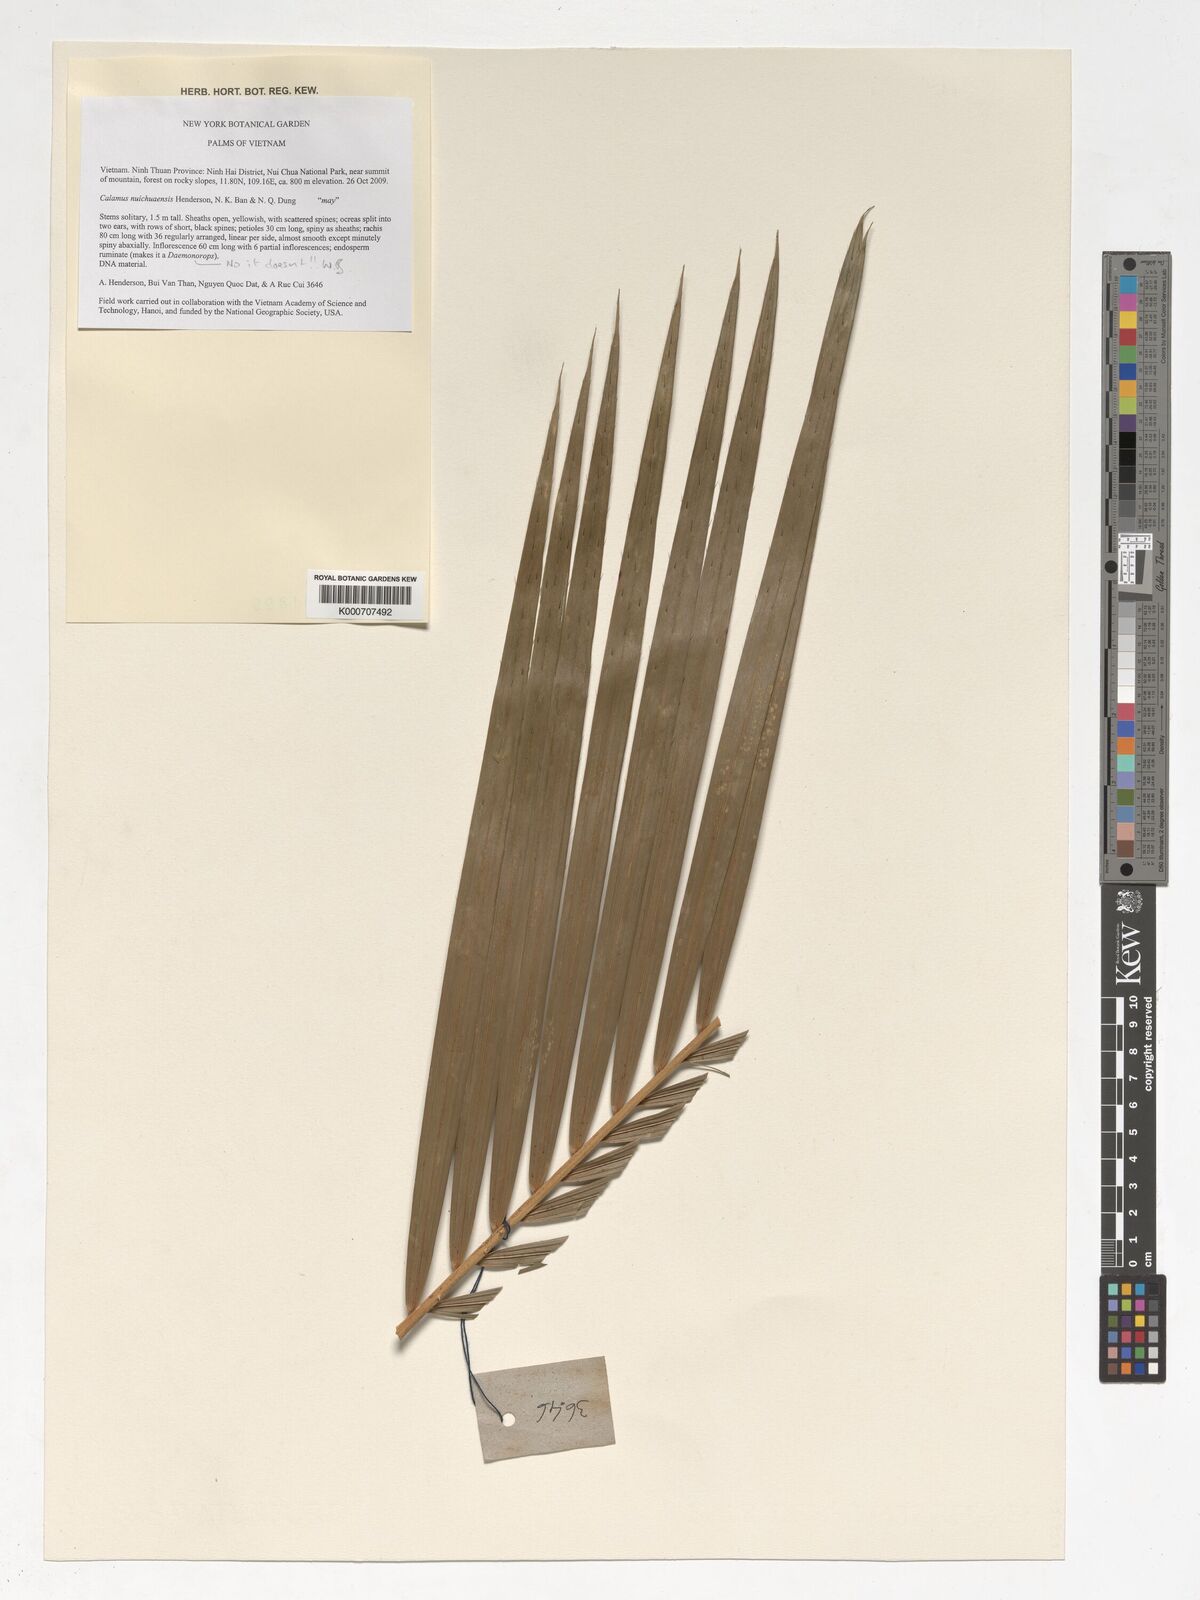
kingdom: Plantae
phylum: Tracheophyta
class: Liliopsida
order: Arecales
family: Arecaceae
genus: Calamus
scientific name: Calamus nuichuaensis
